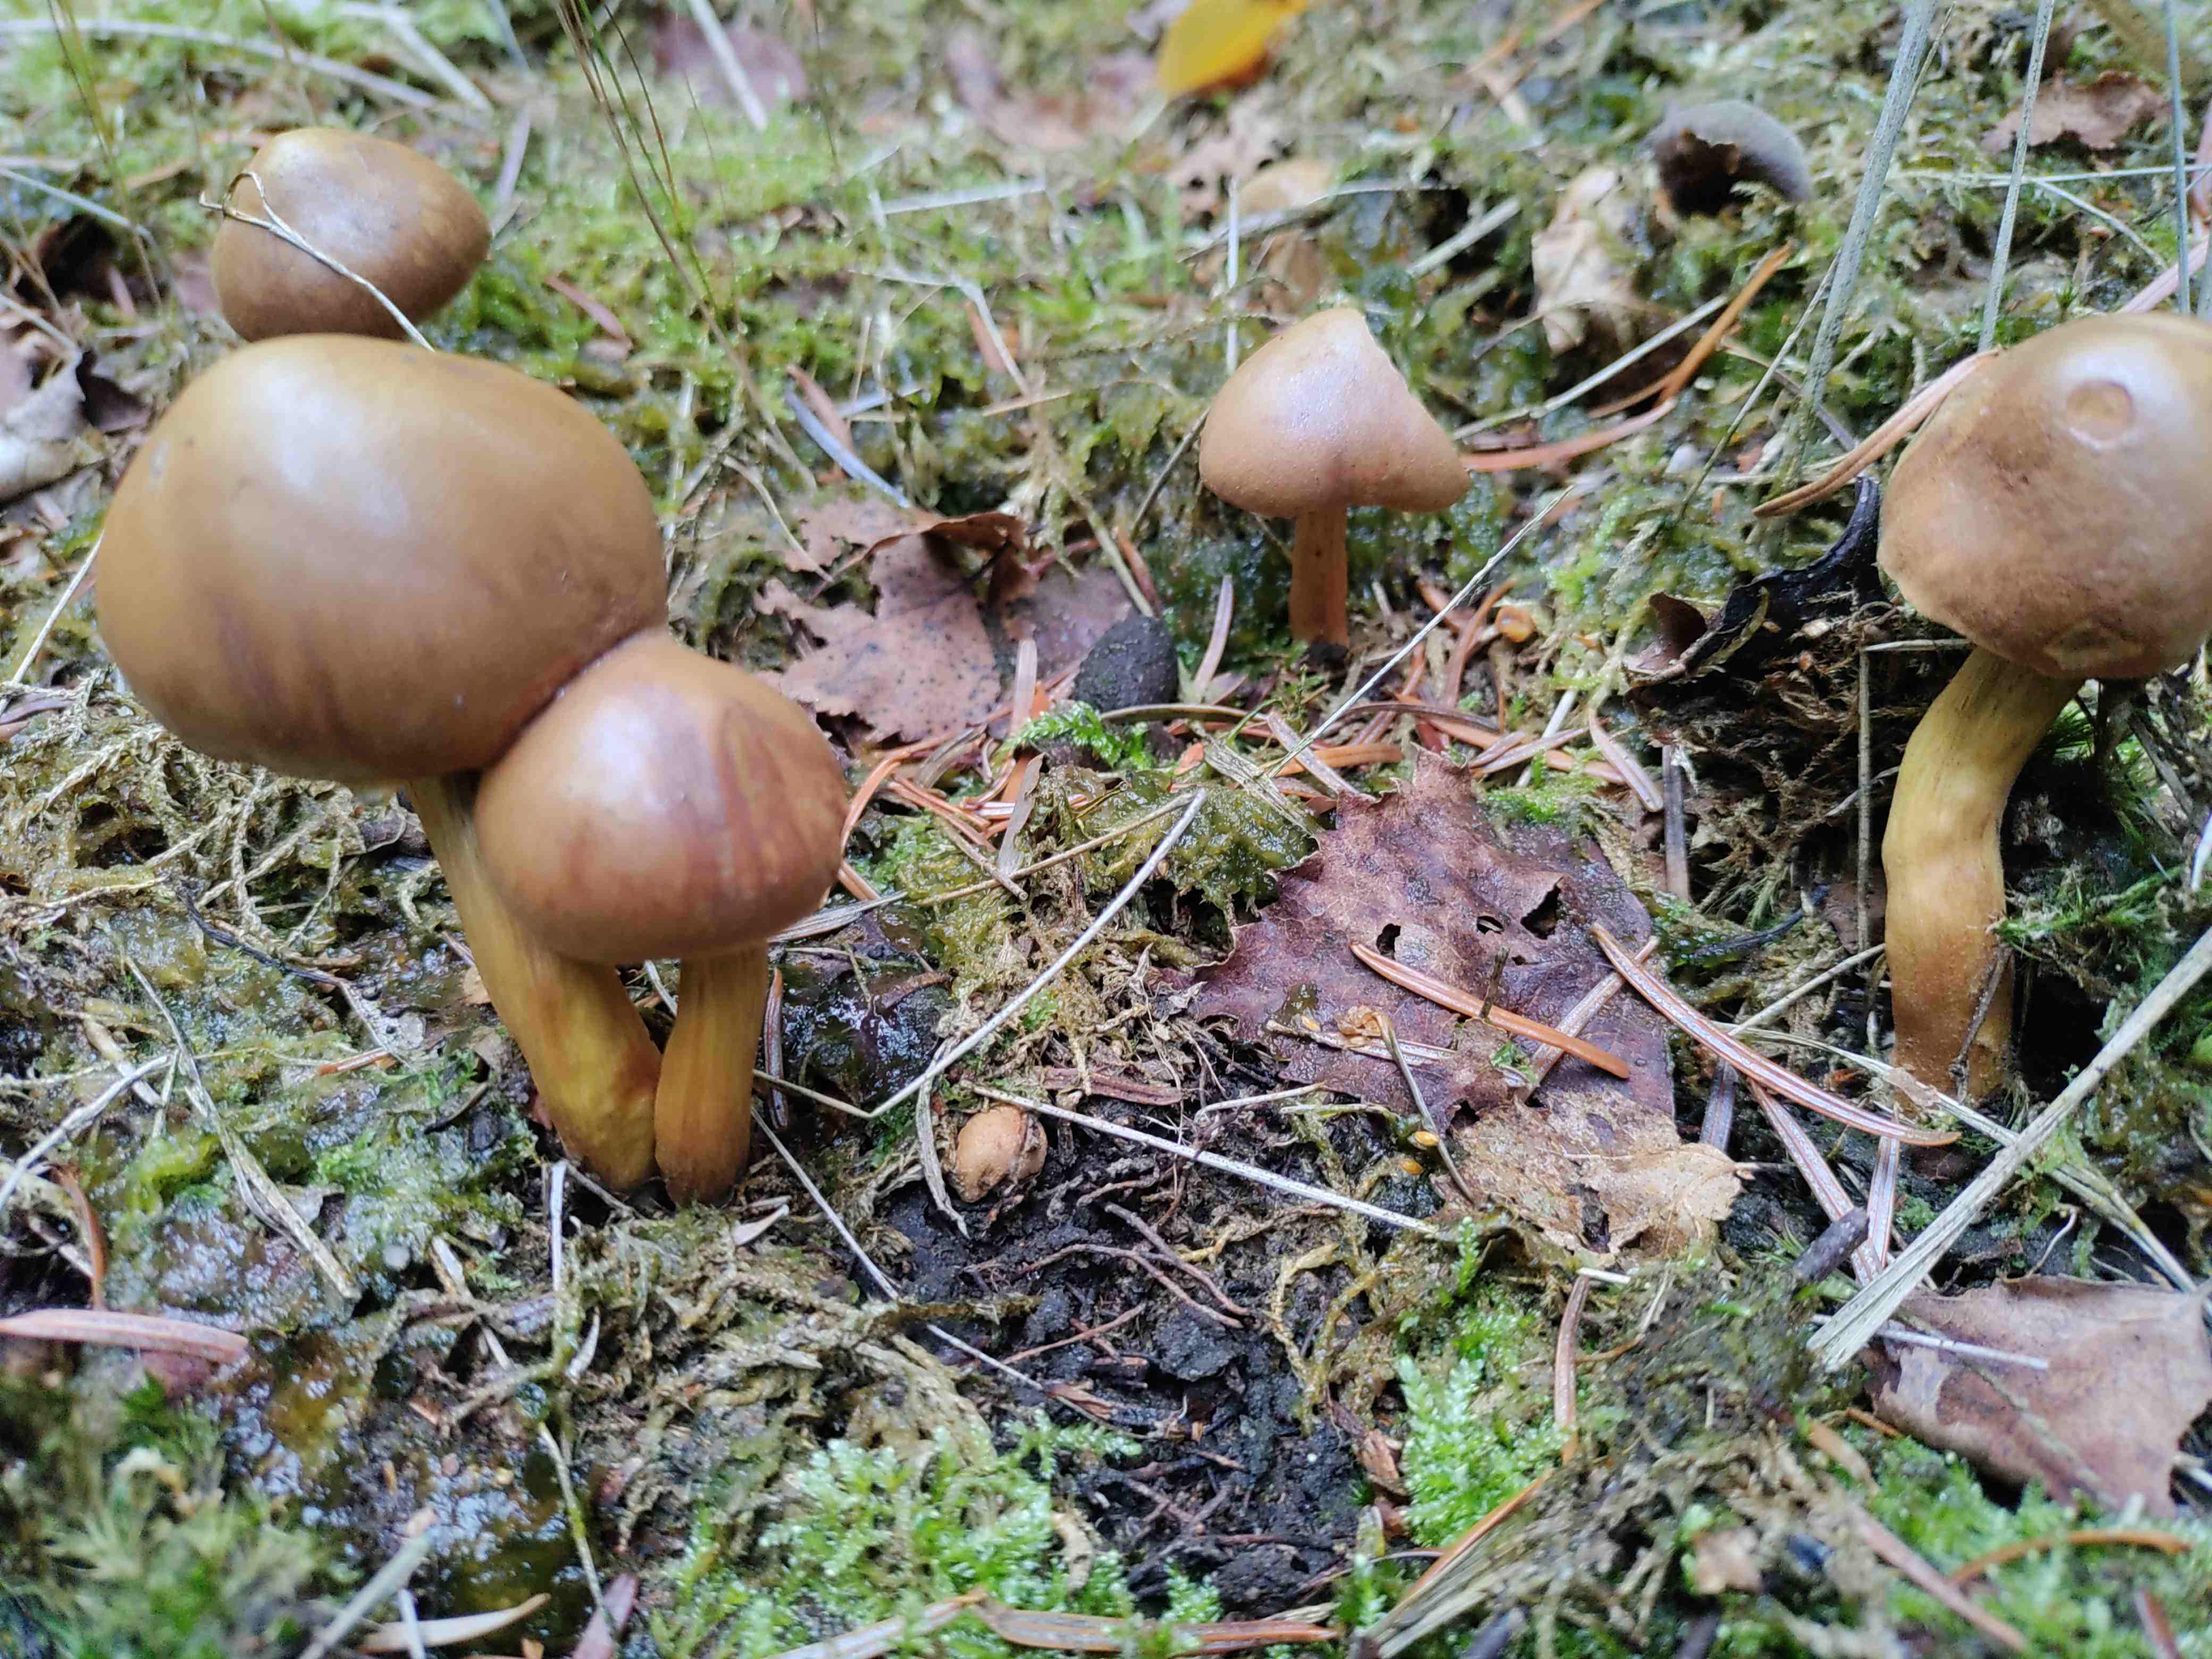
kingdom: Fungi
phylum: Basidiomycota
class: Agaricomycetes
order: Agaricales
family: Cortinariaceae
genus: Cortinarius
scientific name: Cortinarius
